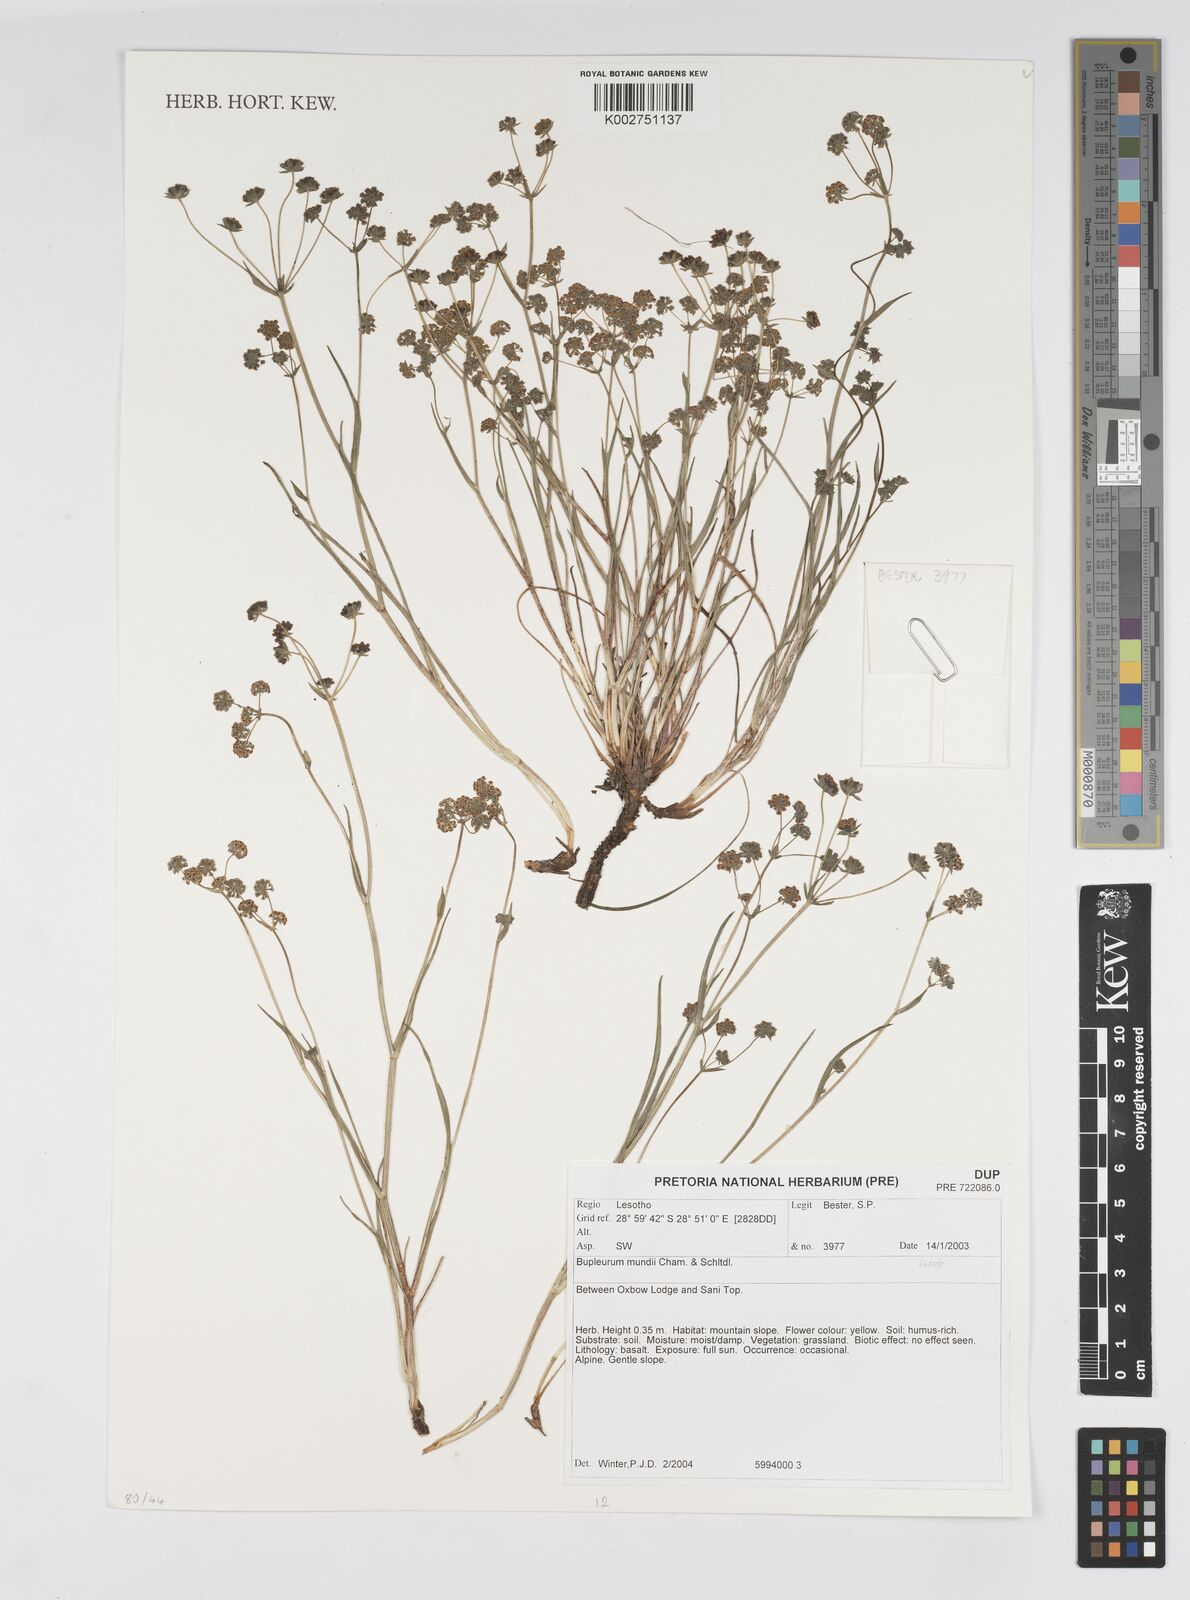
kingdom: Plantae
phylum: Tracheophyta
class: Magnoliopsida
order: Apiales
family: Apiaceae
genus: Bupleurum
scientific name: Bupleurum mundii
